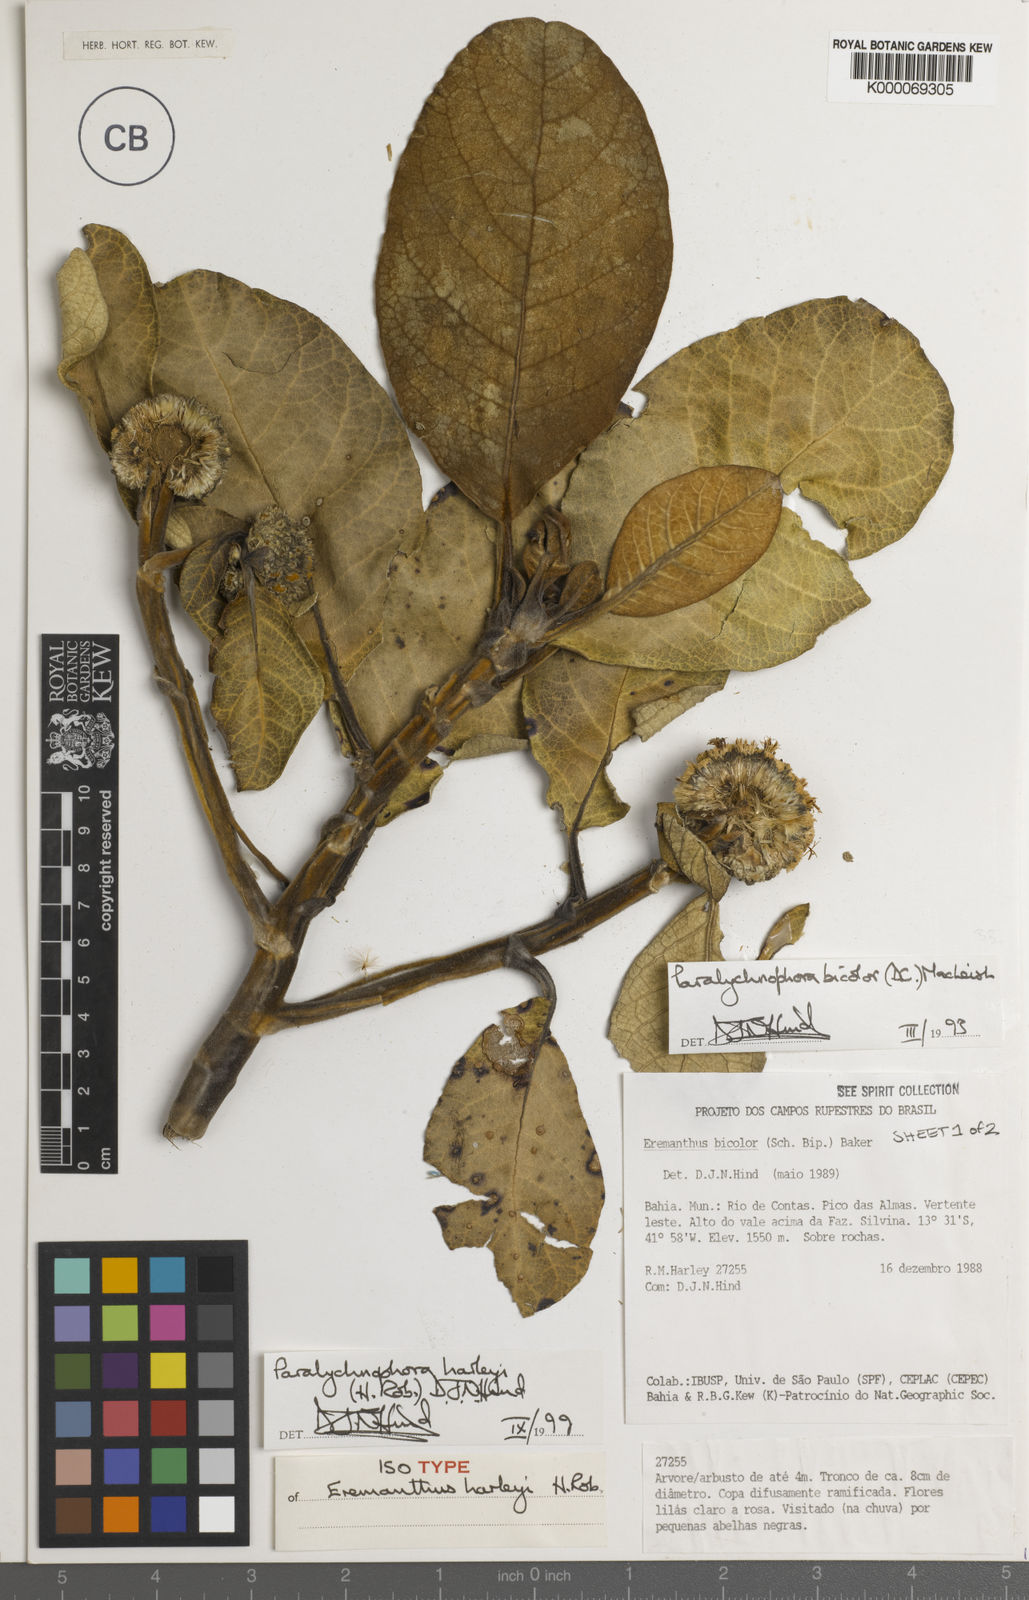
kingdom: Plantae
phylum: Tracheophyta
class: Magnoliopsida
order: Asterales
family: Asteraceae
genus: Paralychnophora
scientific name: Paralychnophora harleyi
